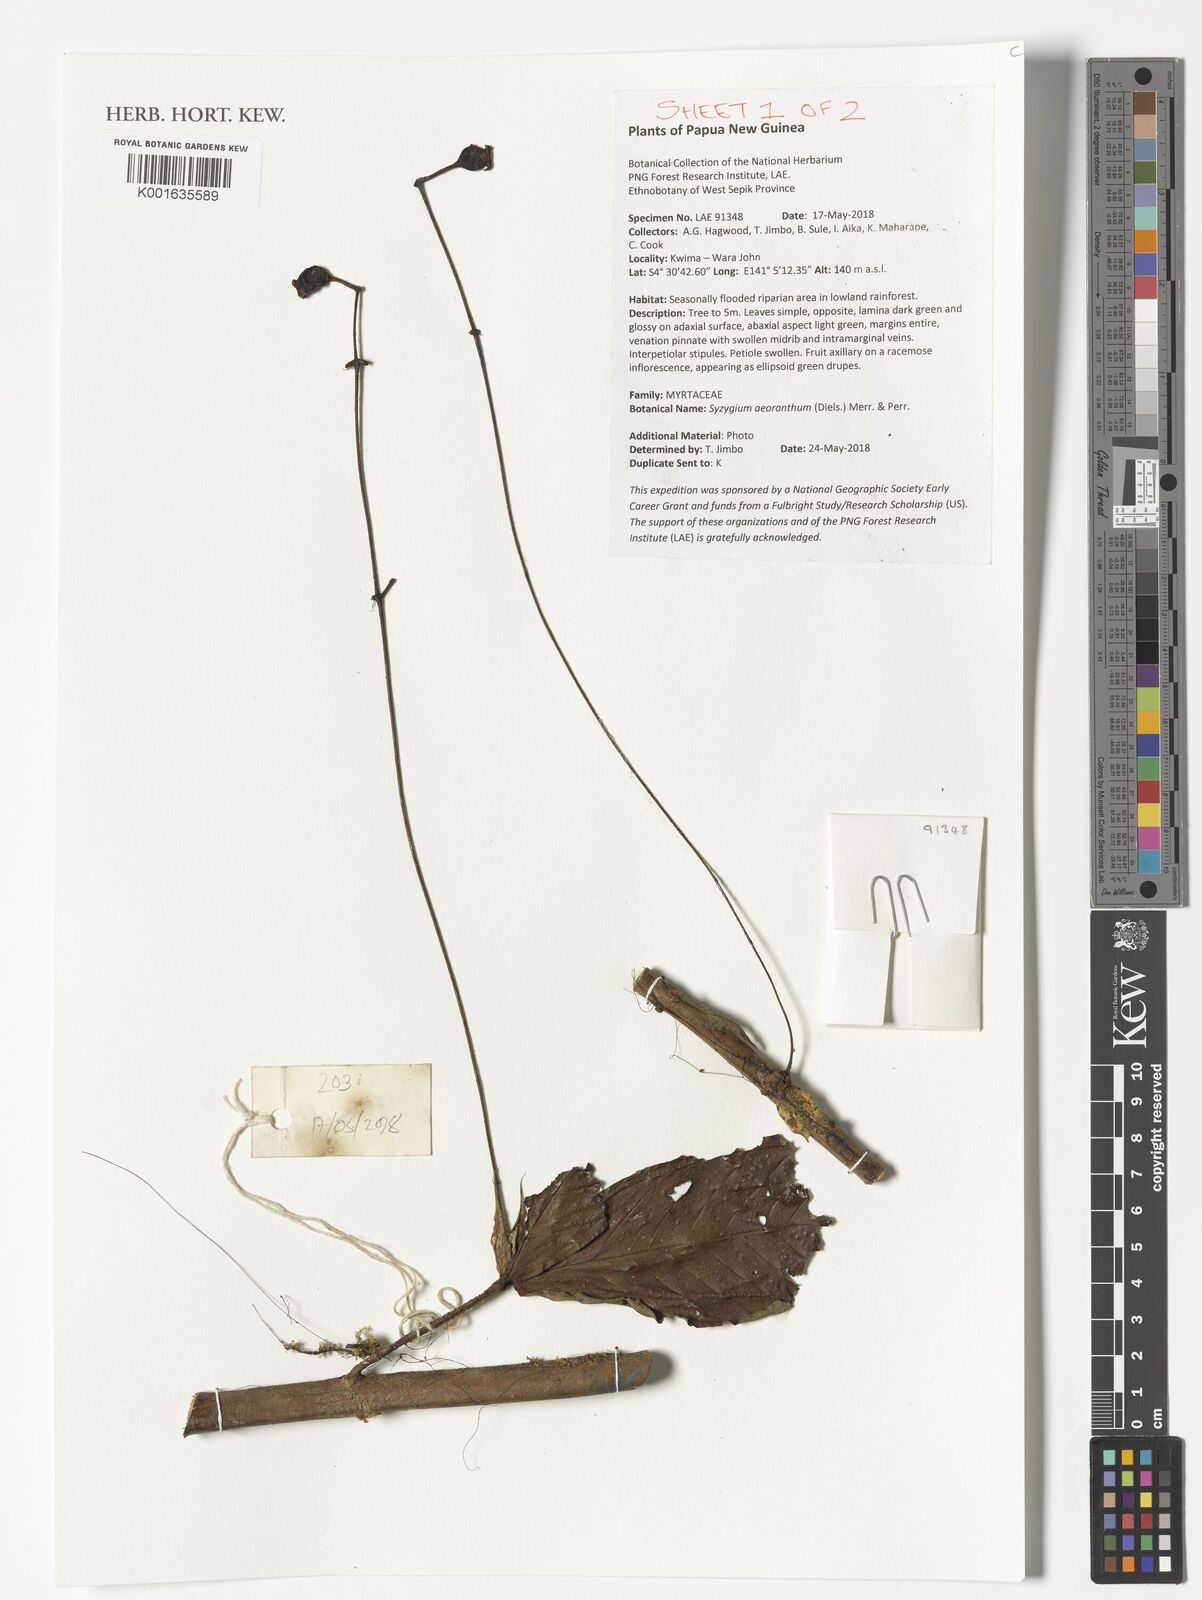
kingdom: Plantae
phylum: Tracheophyta
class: Magnoliopsida
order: Myrtales
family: Myrtaceae
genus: Syzygium
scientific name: Syzygium aeoranthum
